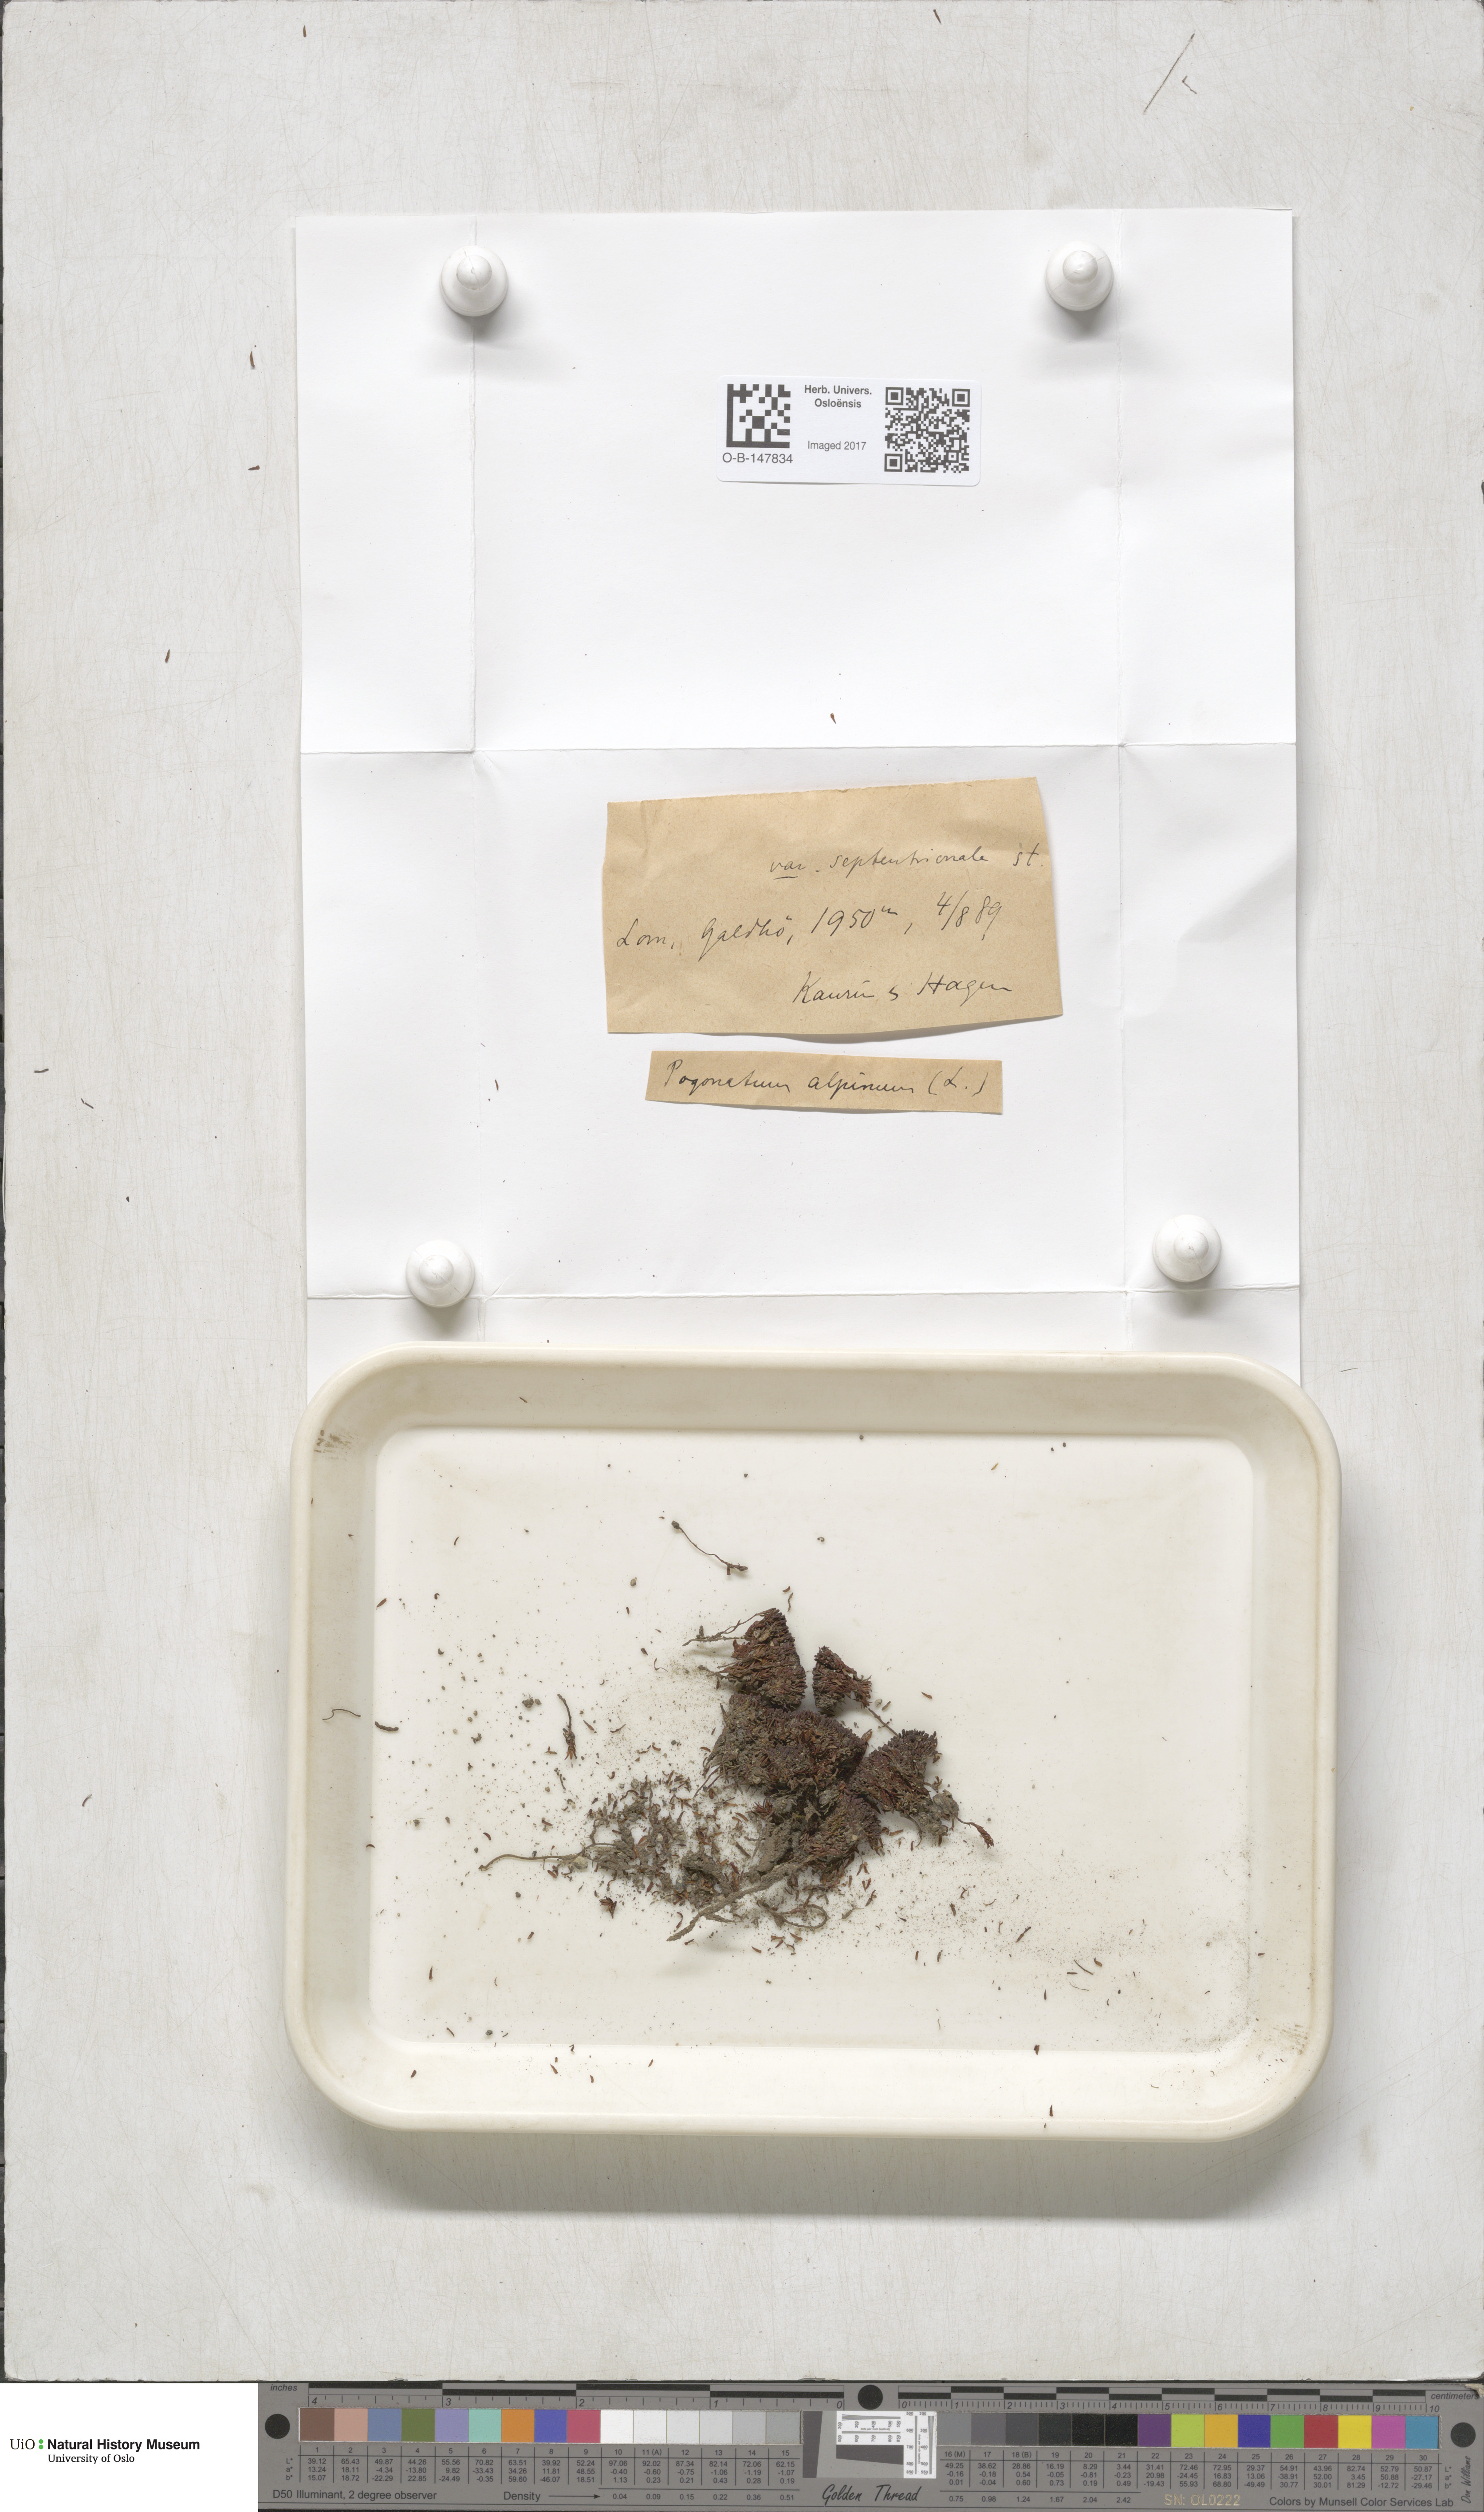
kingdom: Plantae
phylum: Bryophyta
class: Polytrichopsida
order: Polytrichales
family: Polytrichaceae
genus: Polytrichastrum
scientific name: Polytrichastrum alpinum
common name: Alpine haircap
